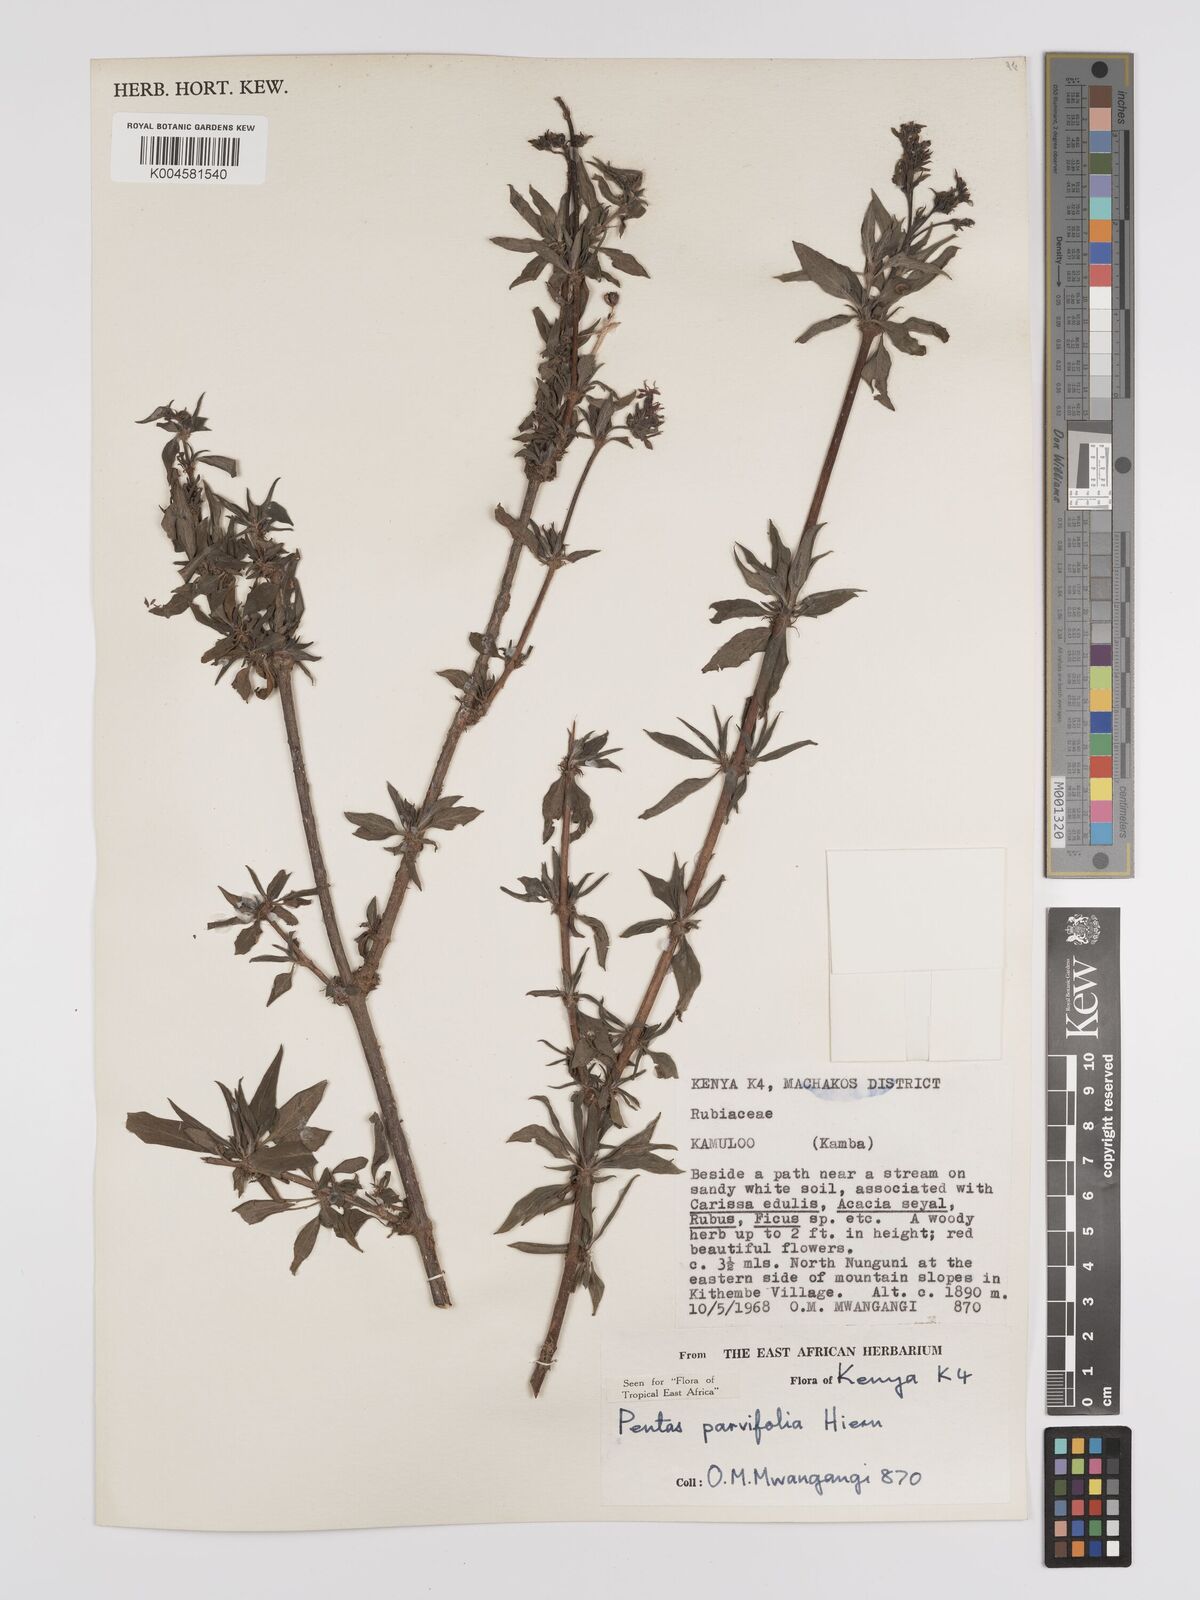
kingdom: Plantae
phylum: Tracheophyta
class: Magnoliopsida
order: Gentianales
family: Rubiaceae
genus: Rhodopentas
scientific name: Rhodopentas parvifolia
